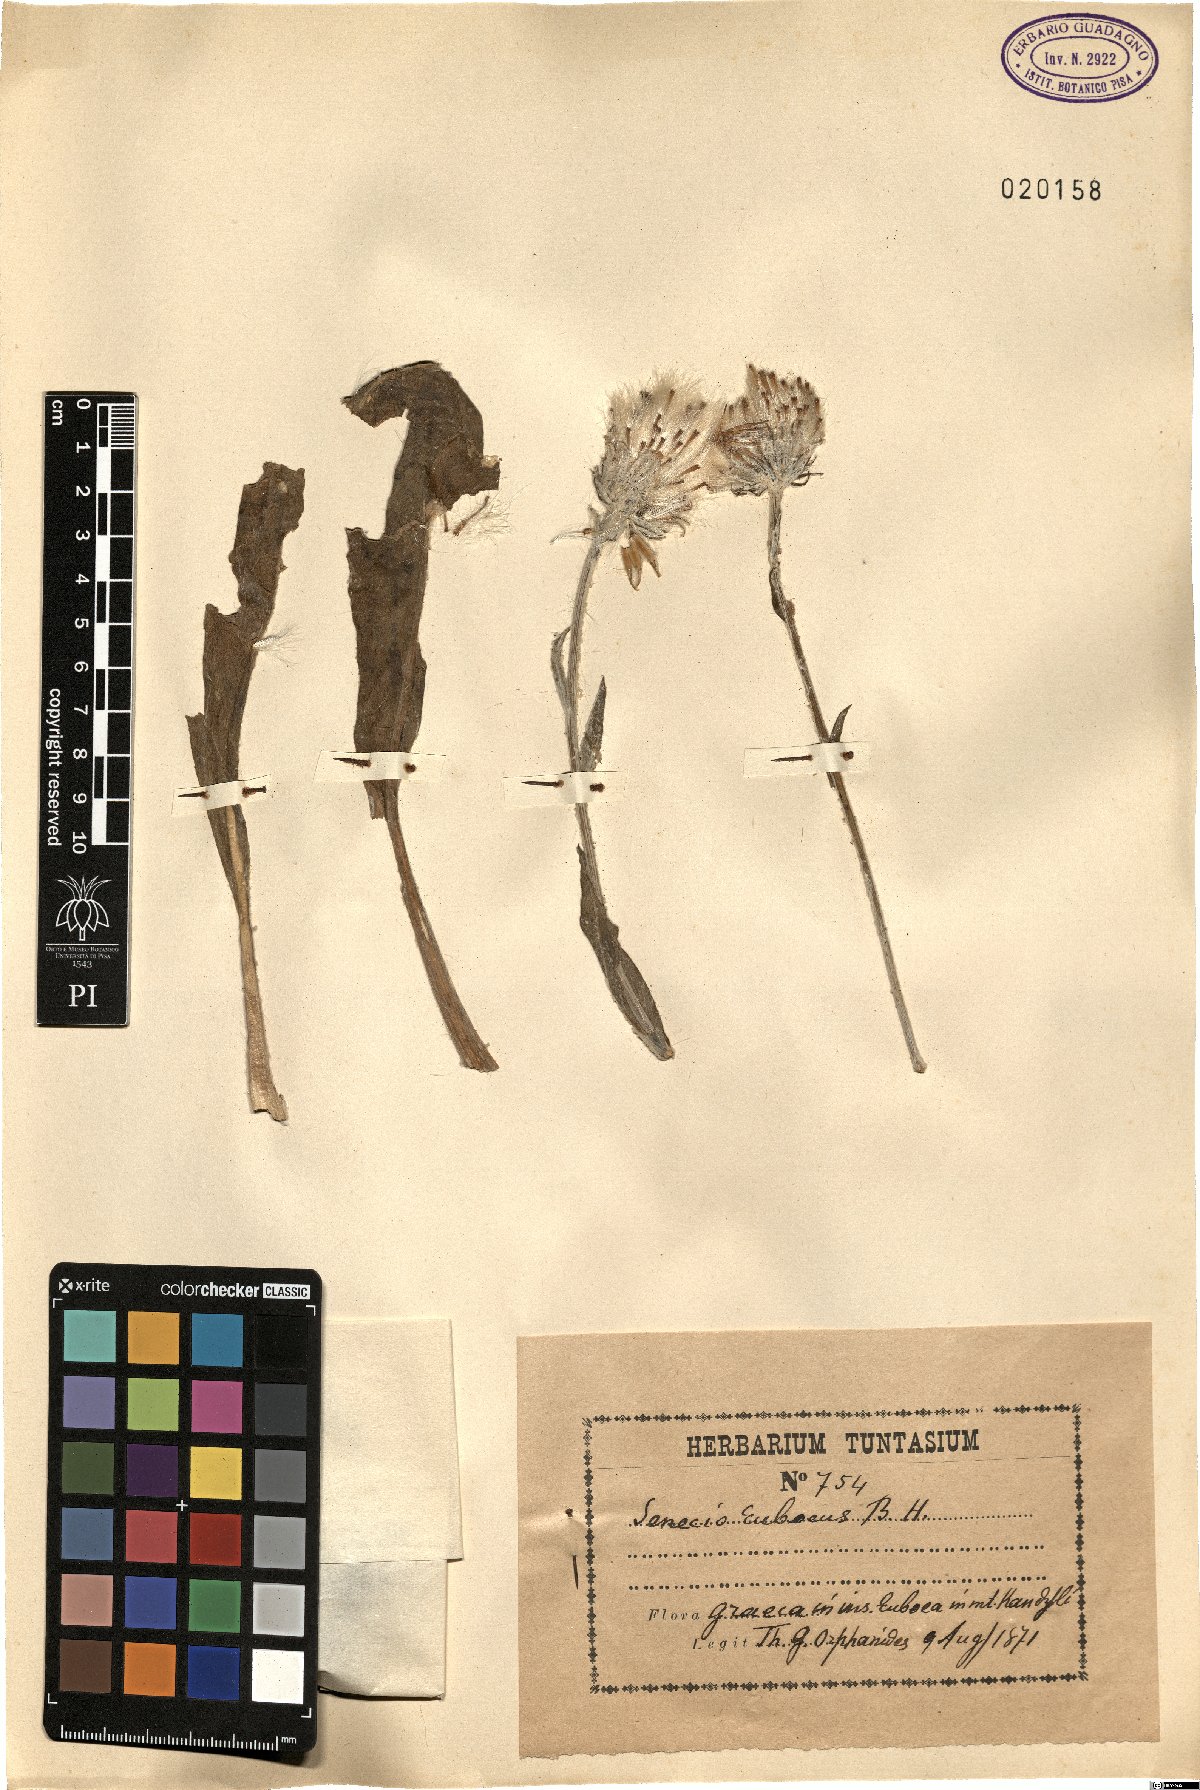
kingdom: Plantae
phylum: Tracheophyta
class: Magnoliopsida
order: Asterales
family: Asteraceae
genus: Senecio
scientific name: Senecio eubaeus
